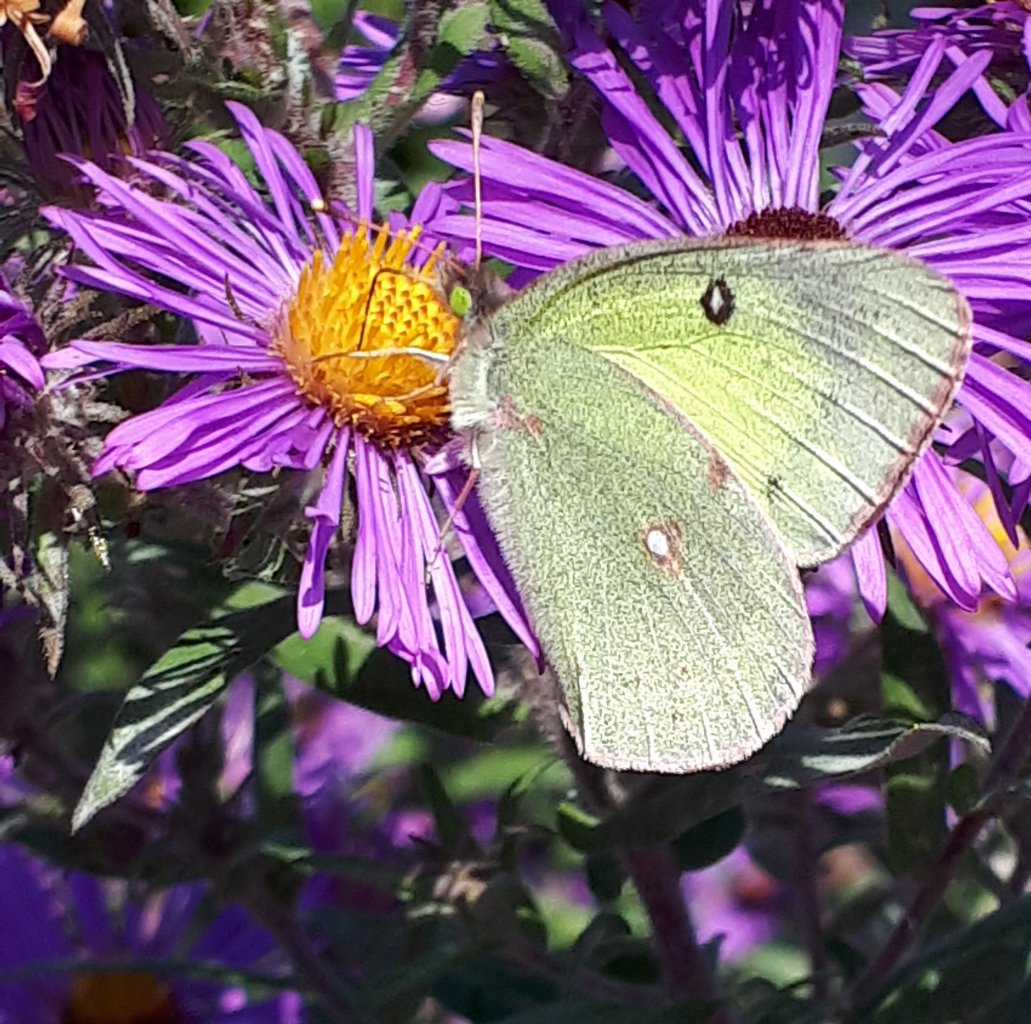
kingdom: Animalia
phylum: Arthropoda
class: Insecta
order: Lepidoptera
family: Pieridae
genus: Colias
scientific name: Colias philodice
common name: Clouded Sulphur
